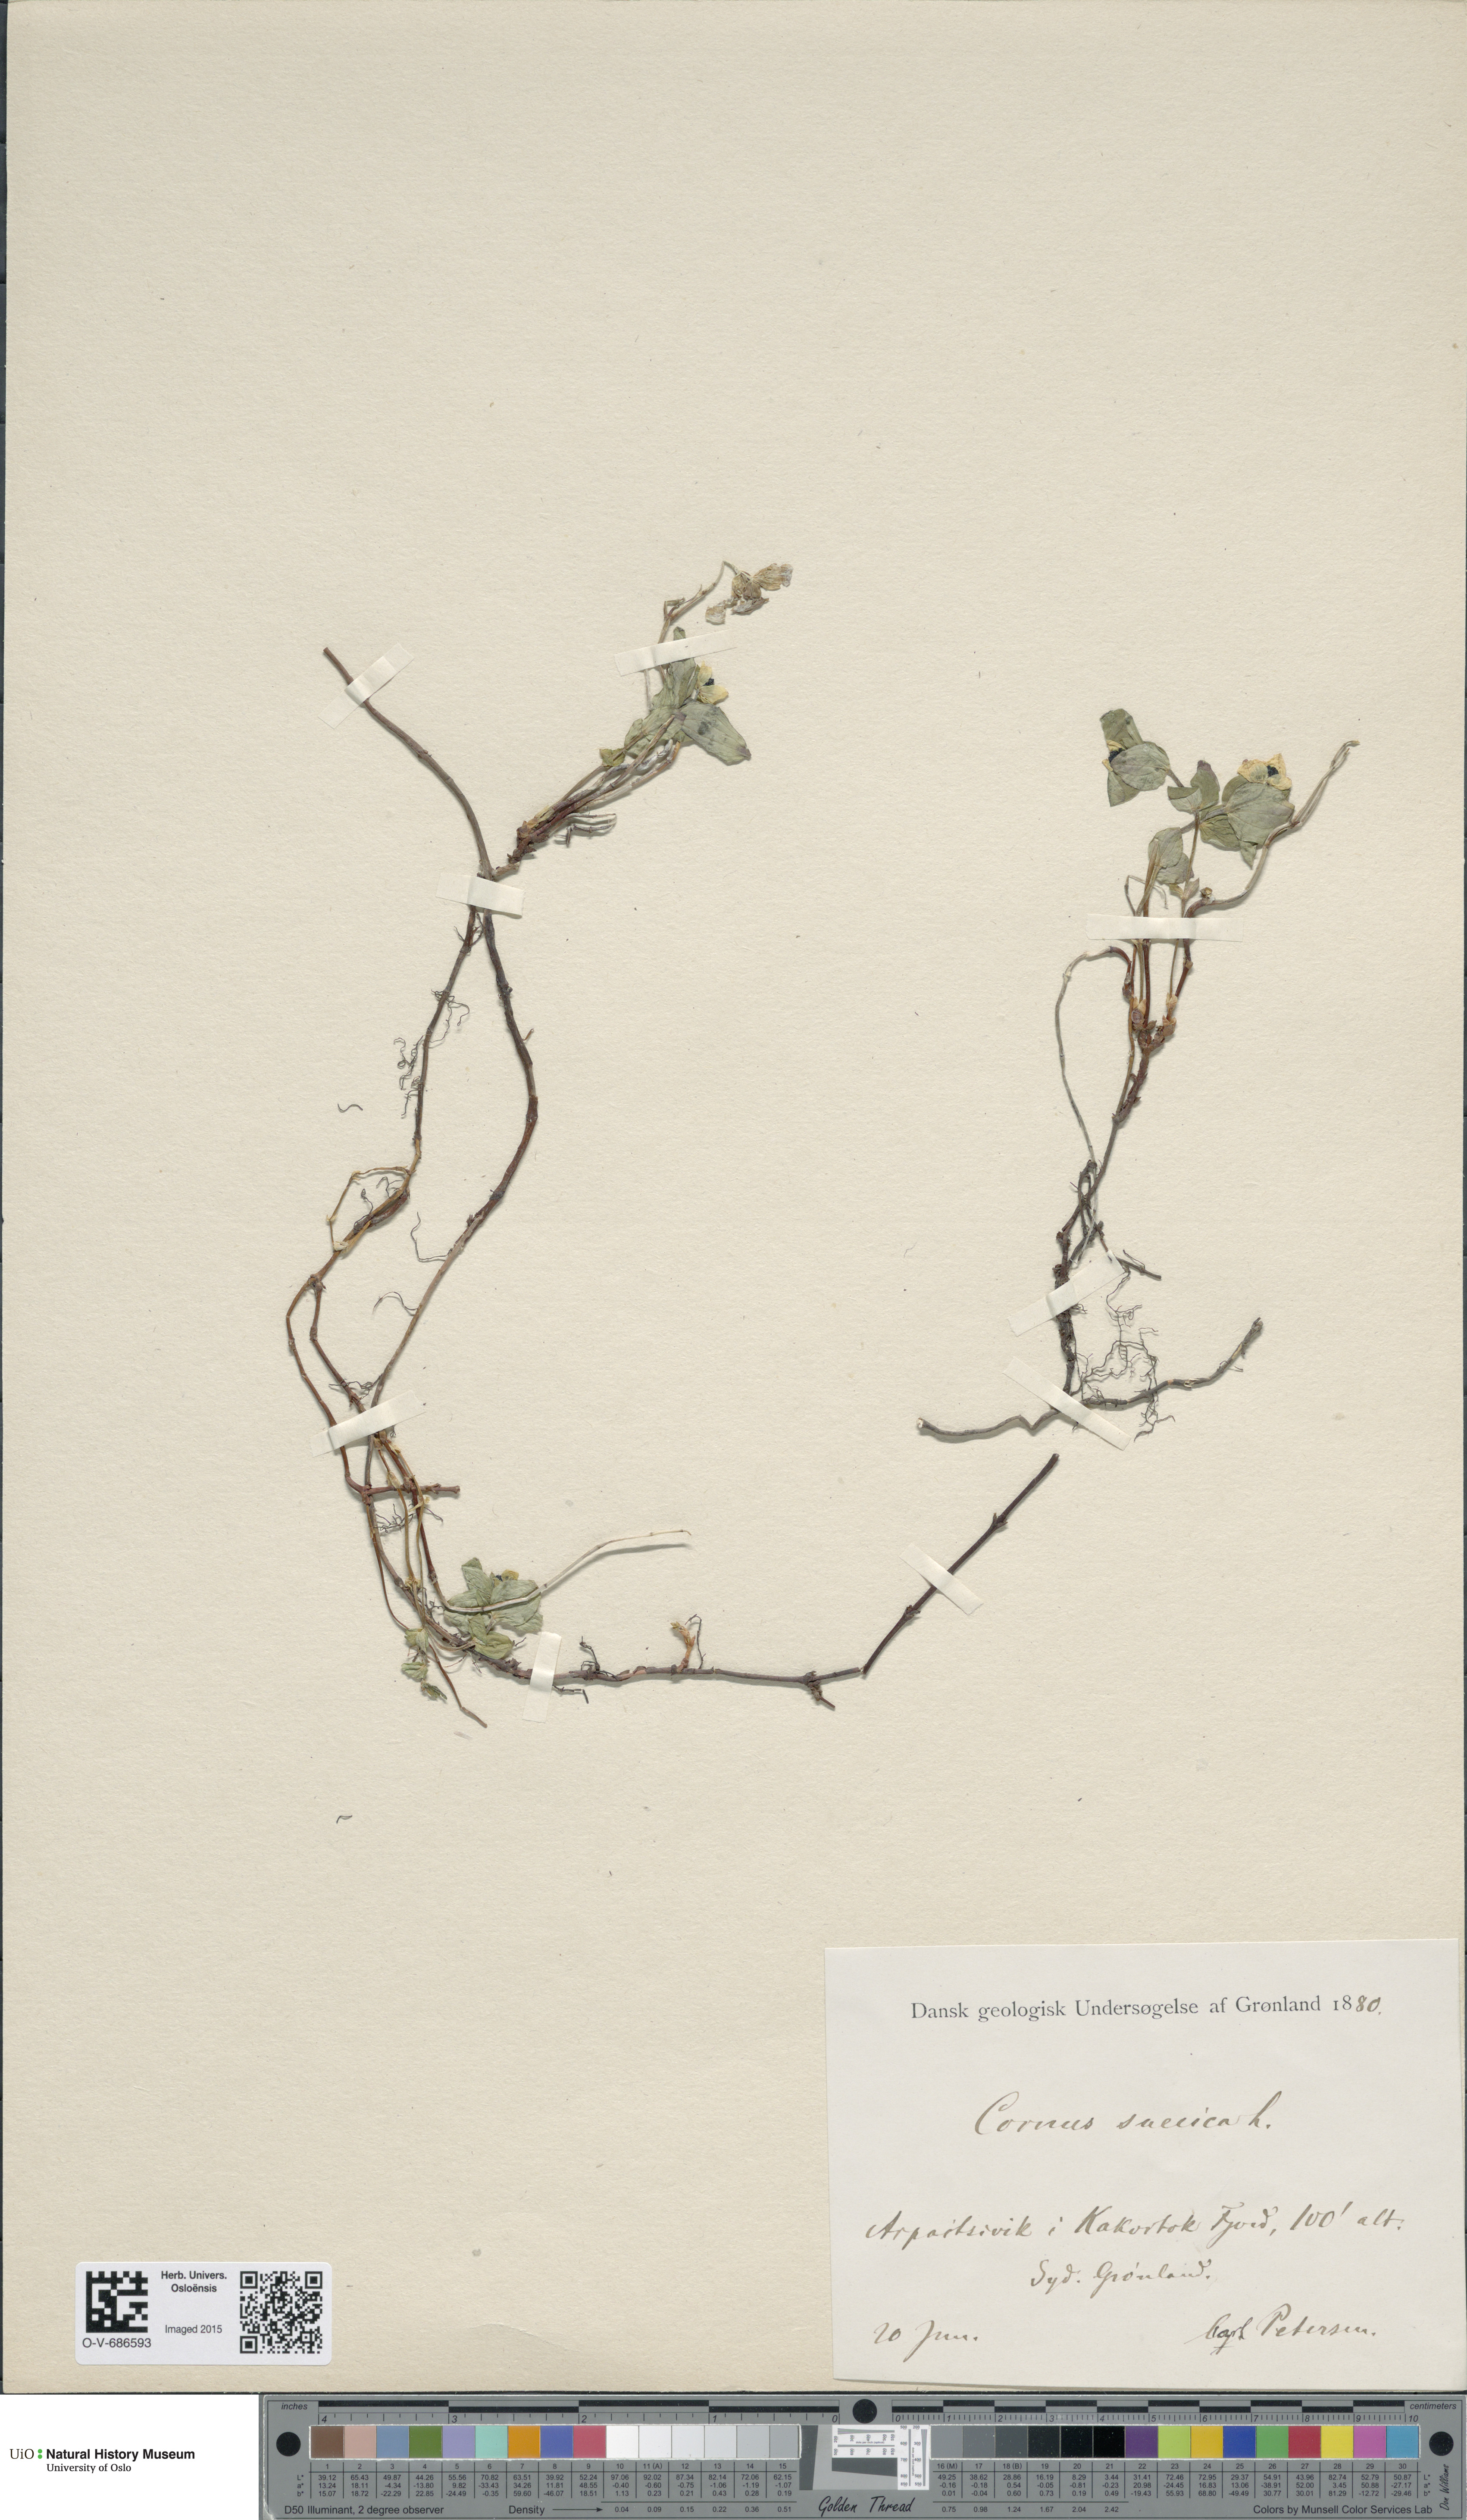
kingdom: Plantae
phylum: Tracheophyta
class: Magnoliopsida
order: Cornales
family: Cornaceae
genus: Cornus
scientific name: Cornus suecica
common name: Dwarf cornel
